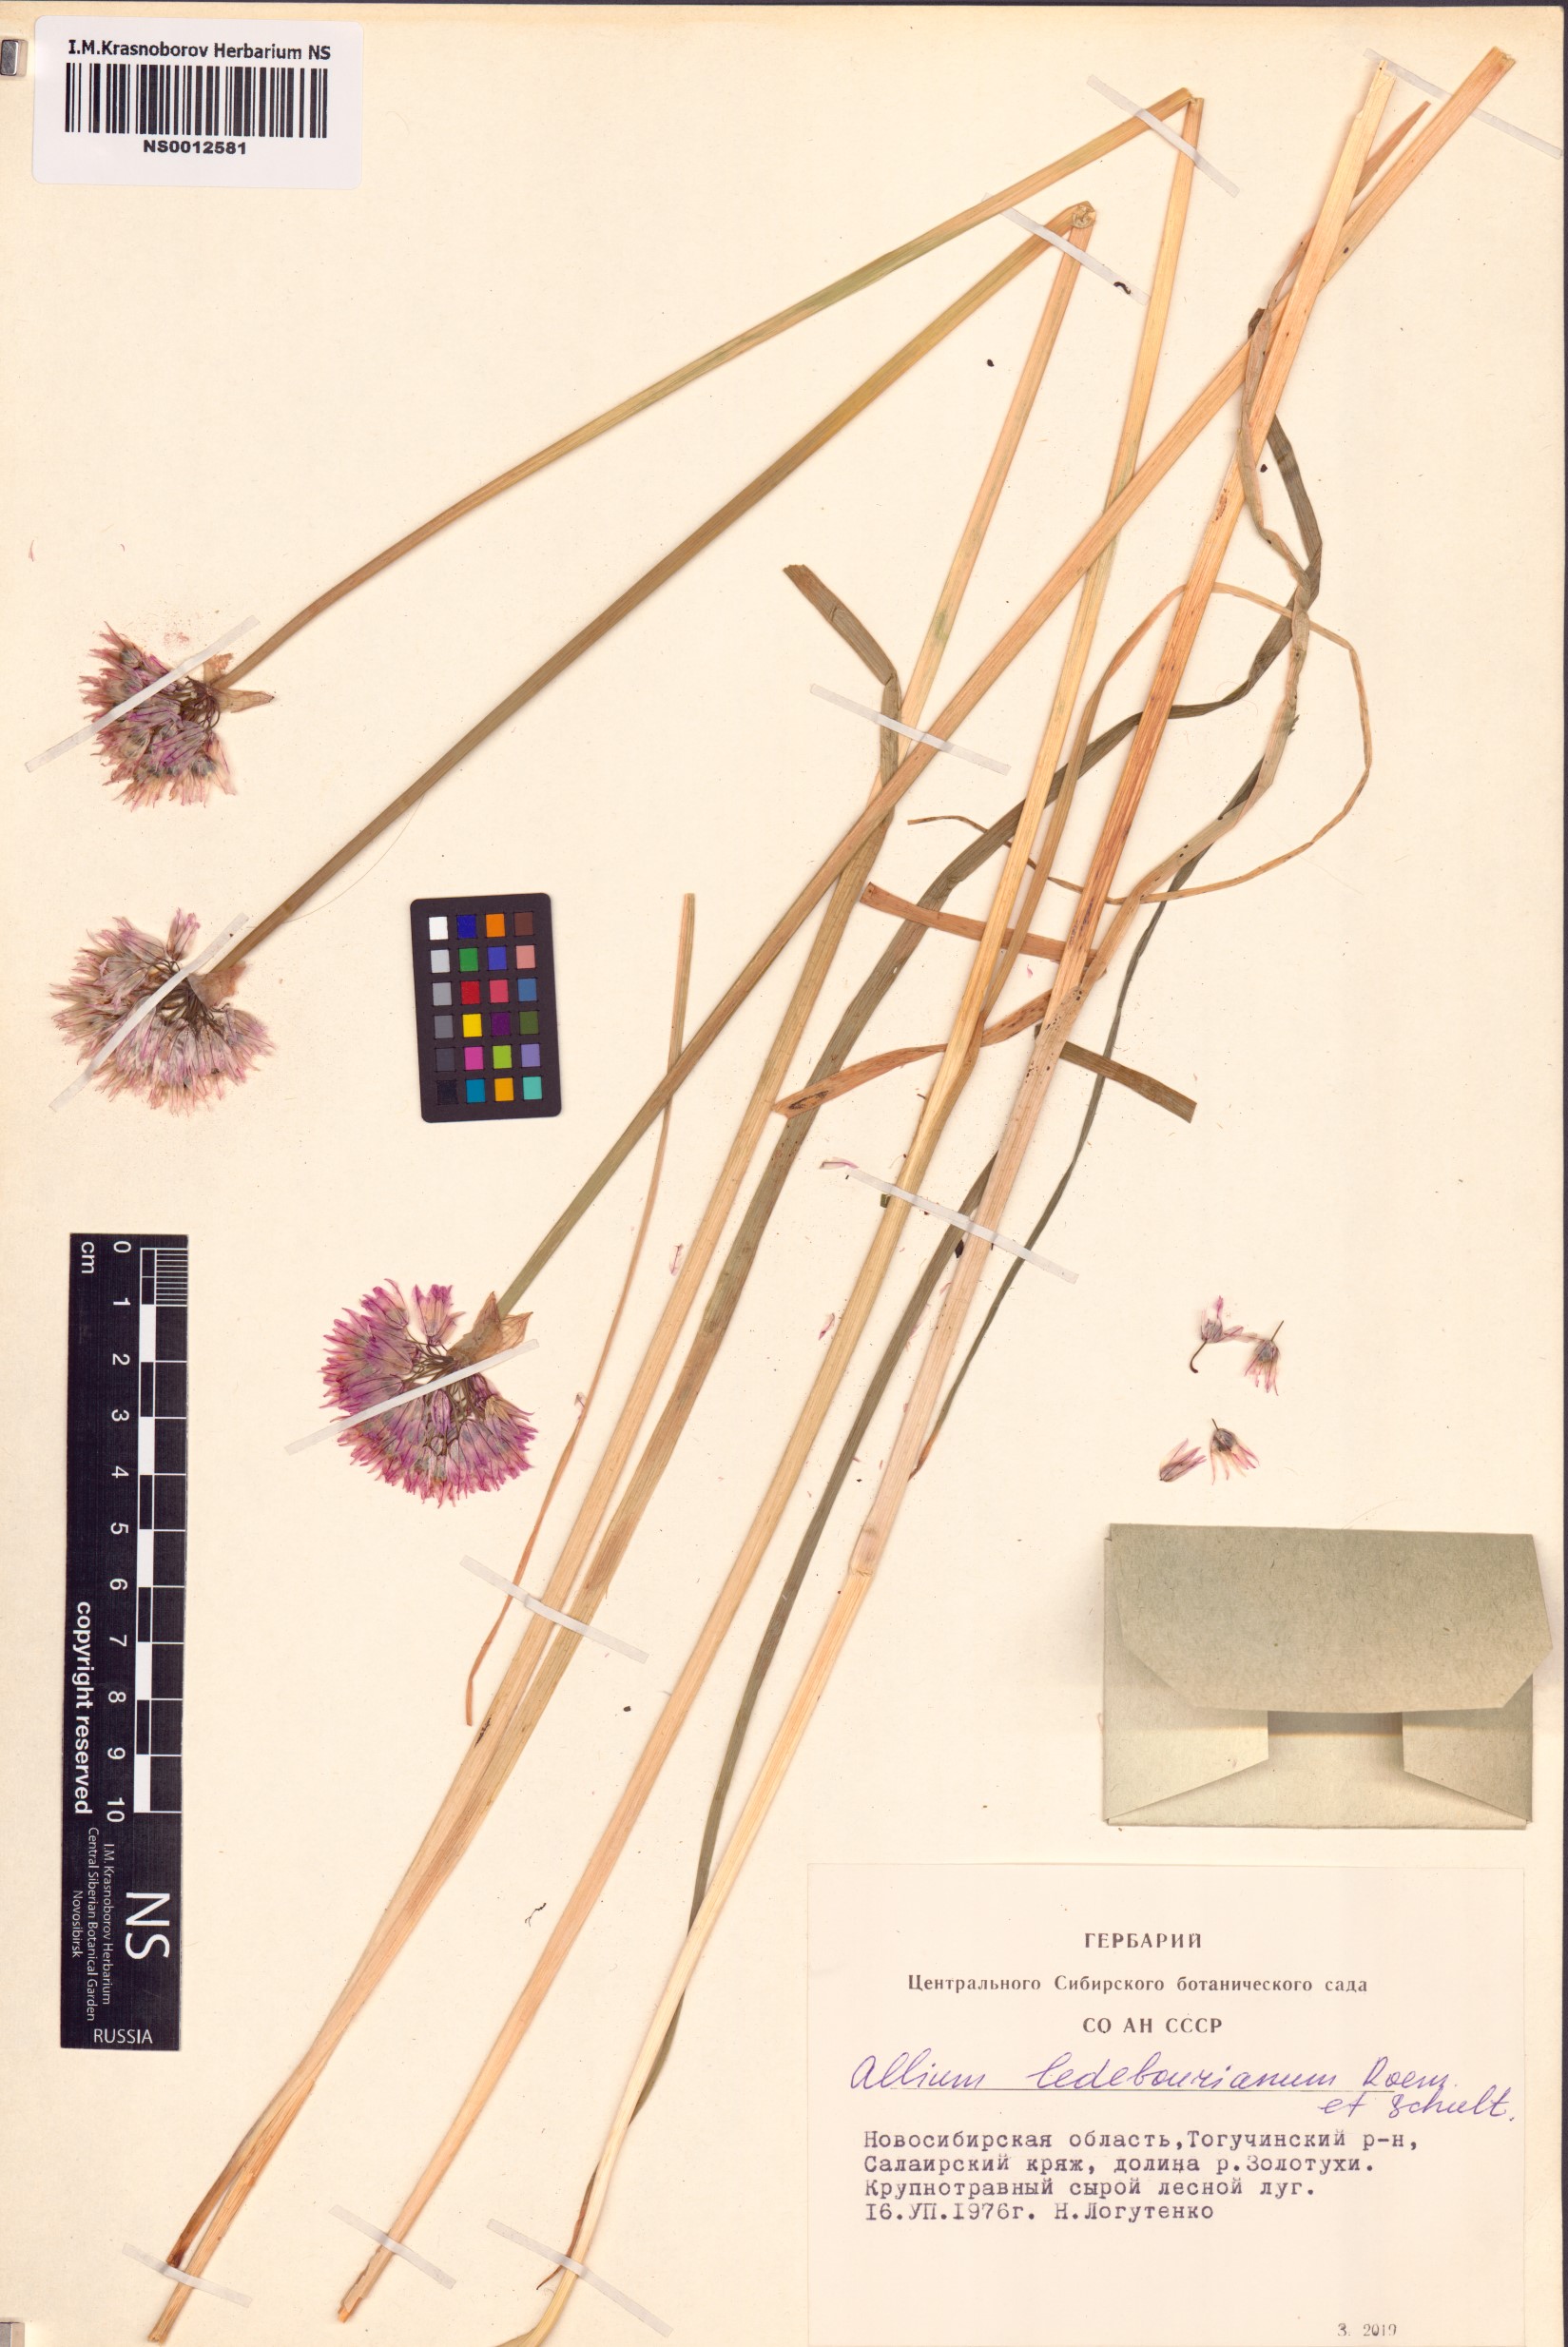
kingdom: Plantae
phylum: Tracheophyta
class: Liliopsida
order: Asparagales
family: Amaryllidaceae
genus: Allium
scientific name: Allium ledebourianum
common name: Ledebour chive
